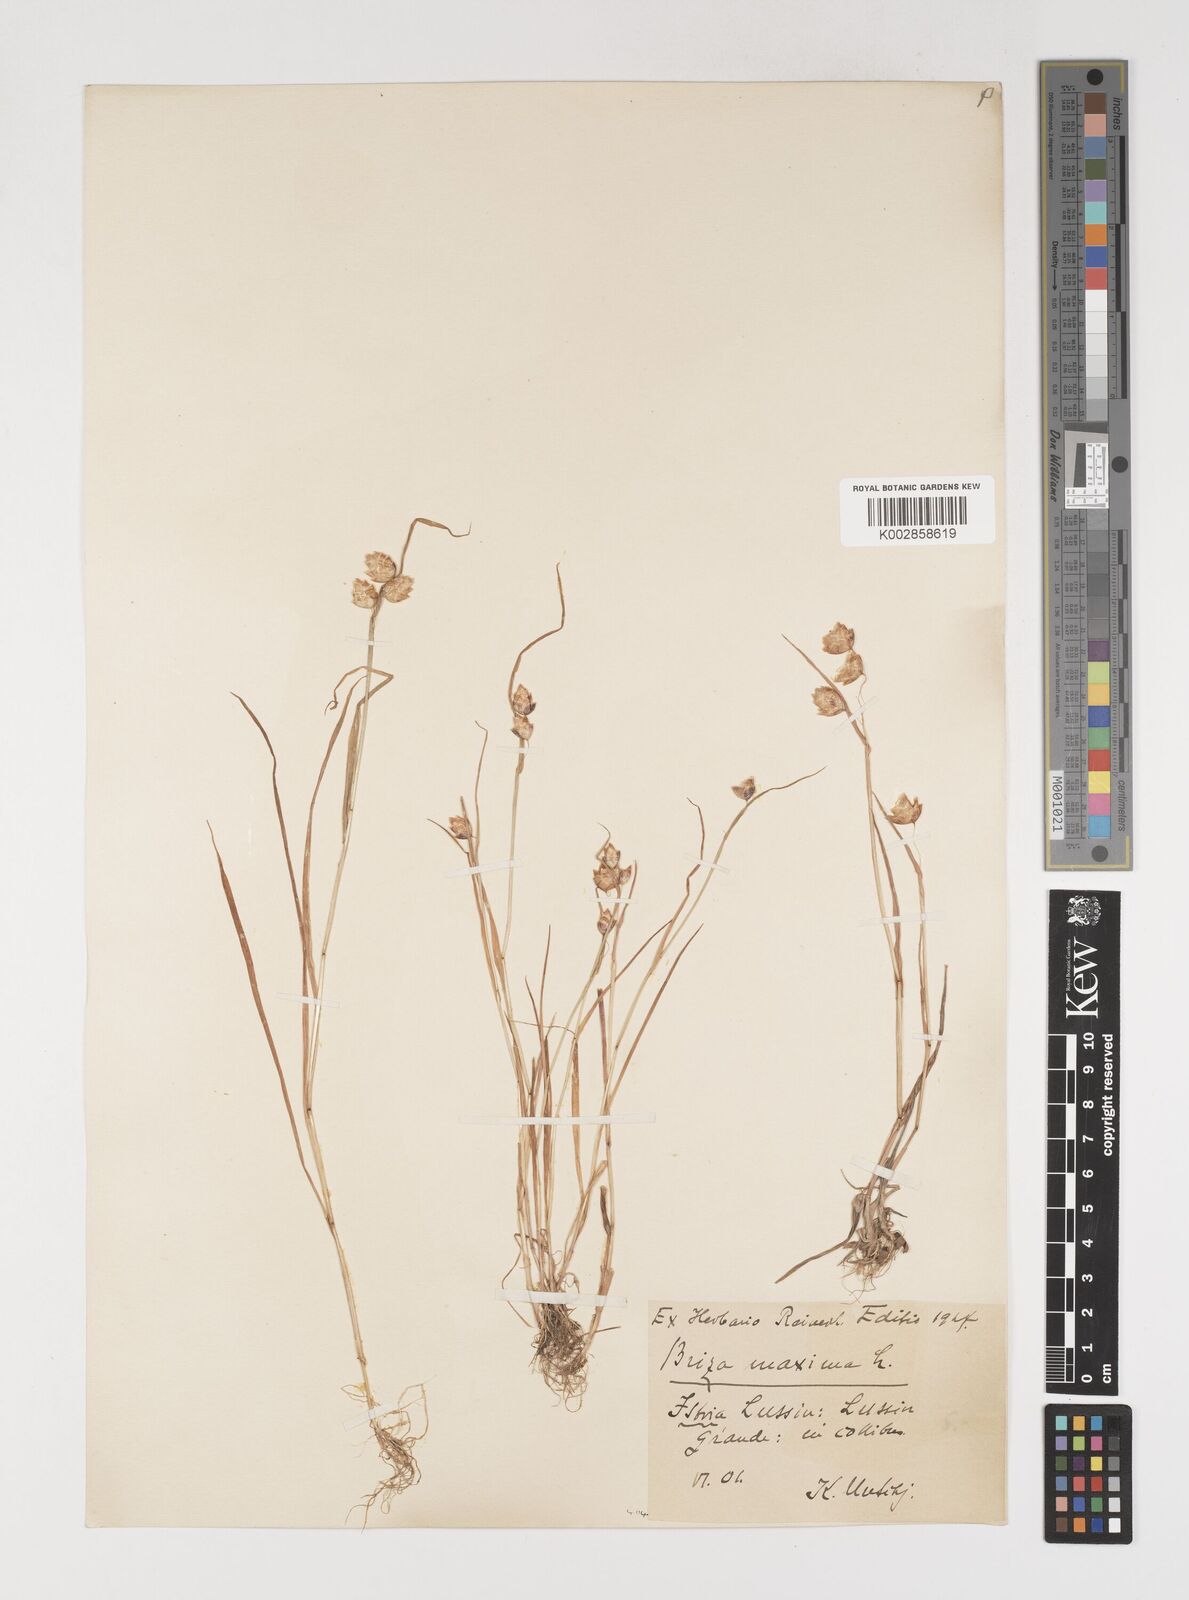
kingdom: Plantae
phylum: Tracheophyta
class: Liliopsida
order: Poales
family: Poaceae
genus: Briza
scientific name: Briza maxima
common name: Big quakinggrass
